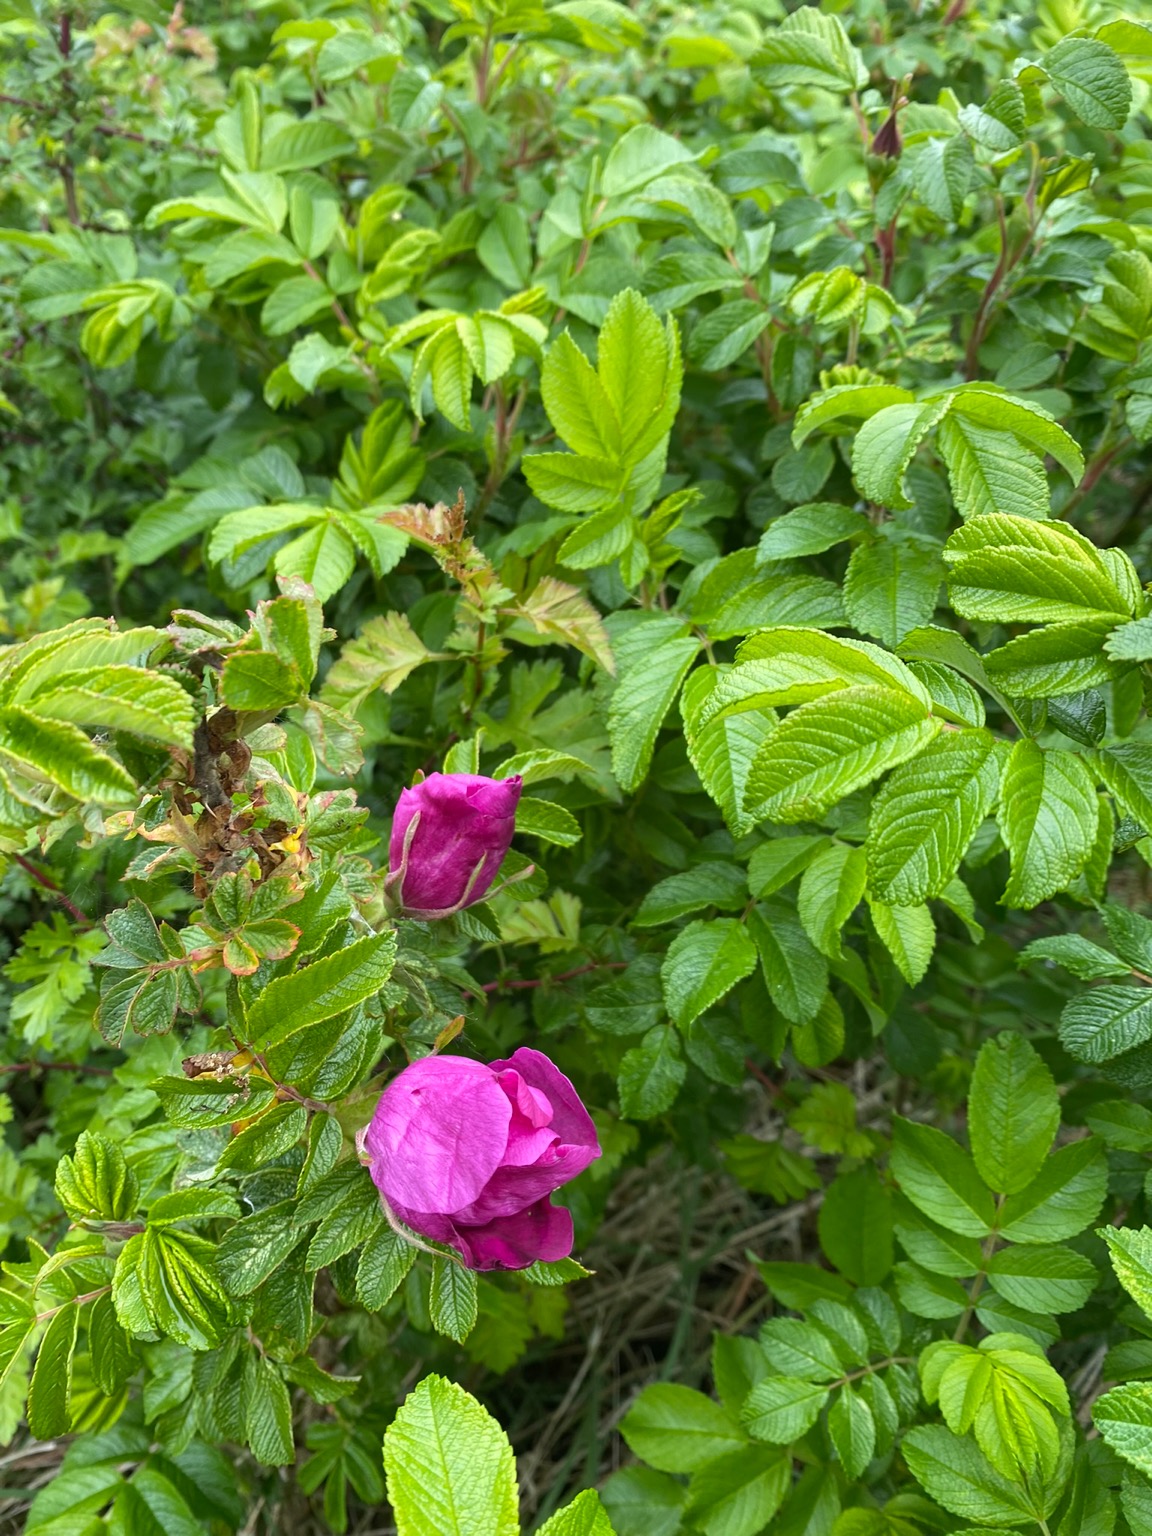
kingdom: Plantae
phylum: Tracheophyta
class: Magnoliopsida
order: Rosales
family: Rosaceae
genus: Rosa
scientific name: Rosa rugosa
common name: Rynket rose
